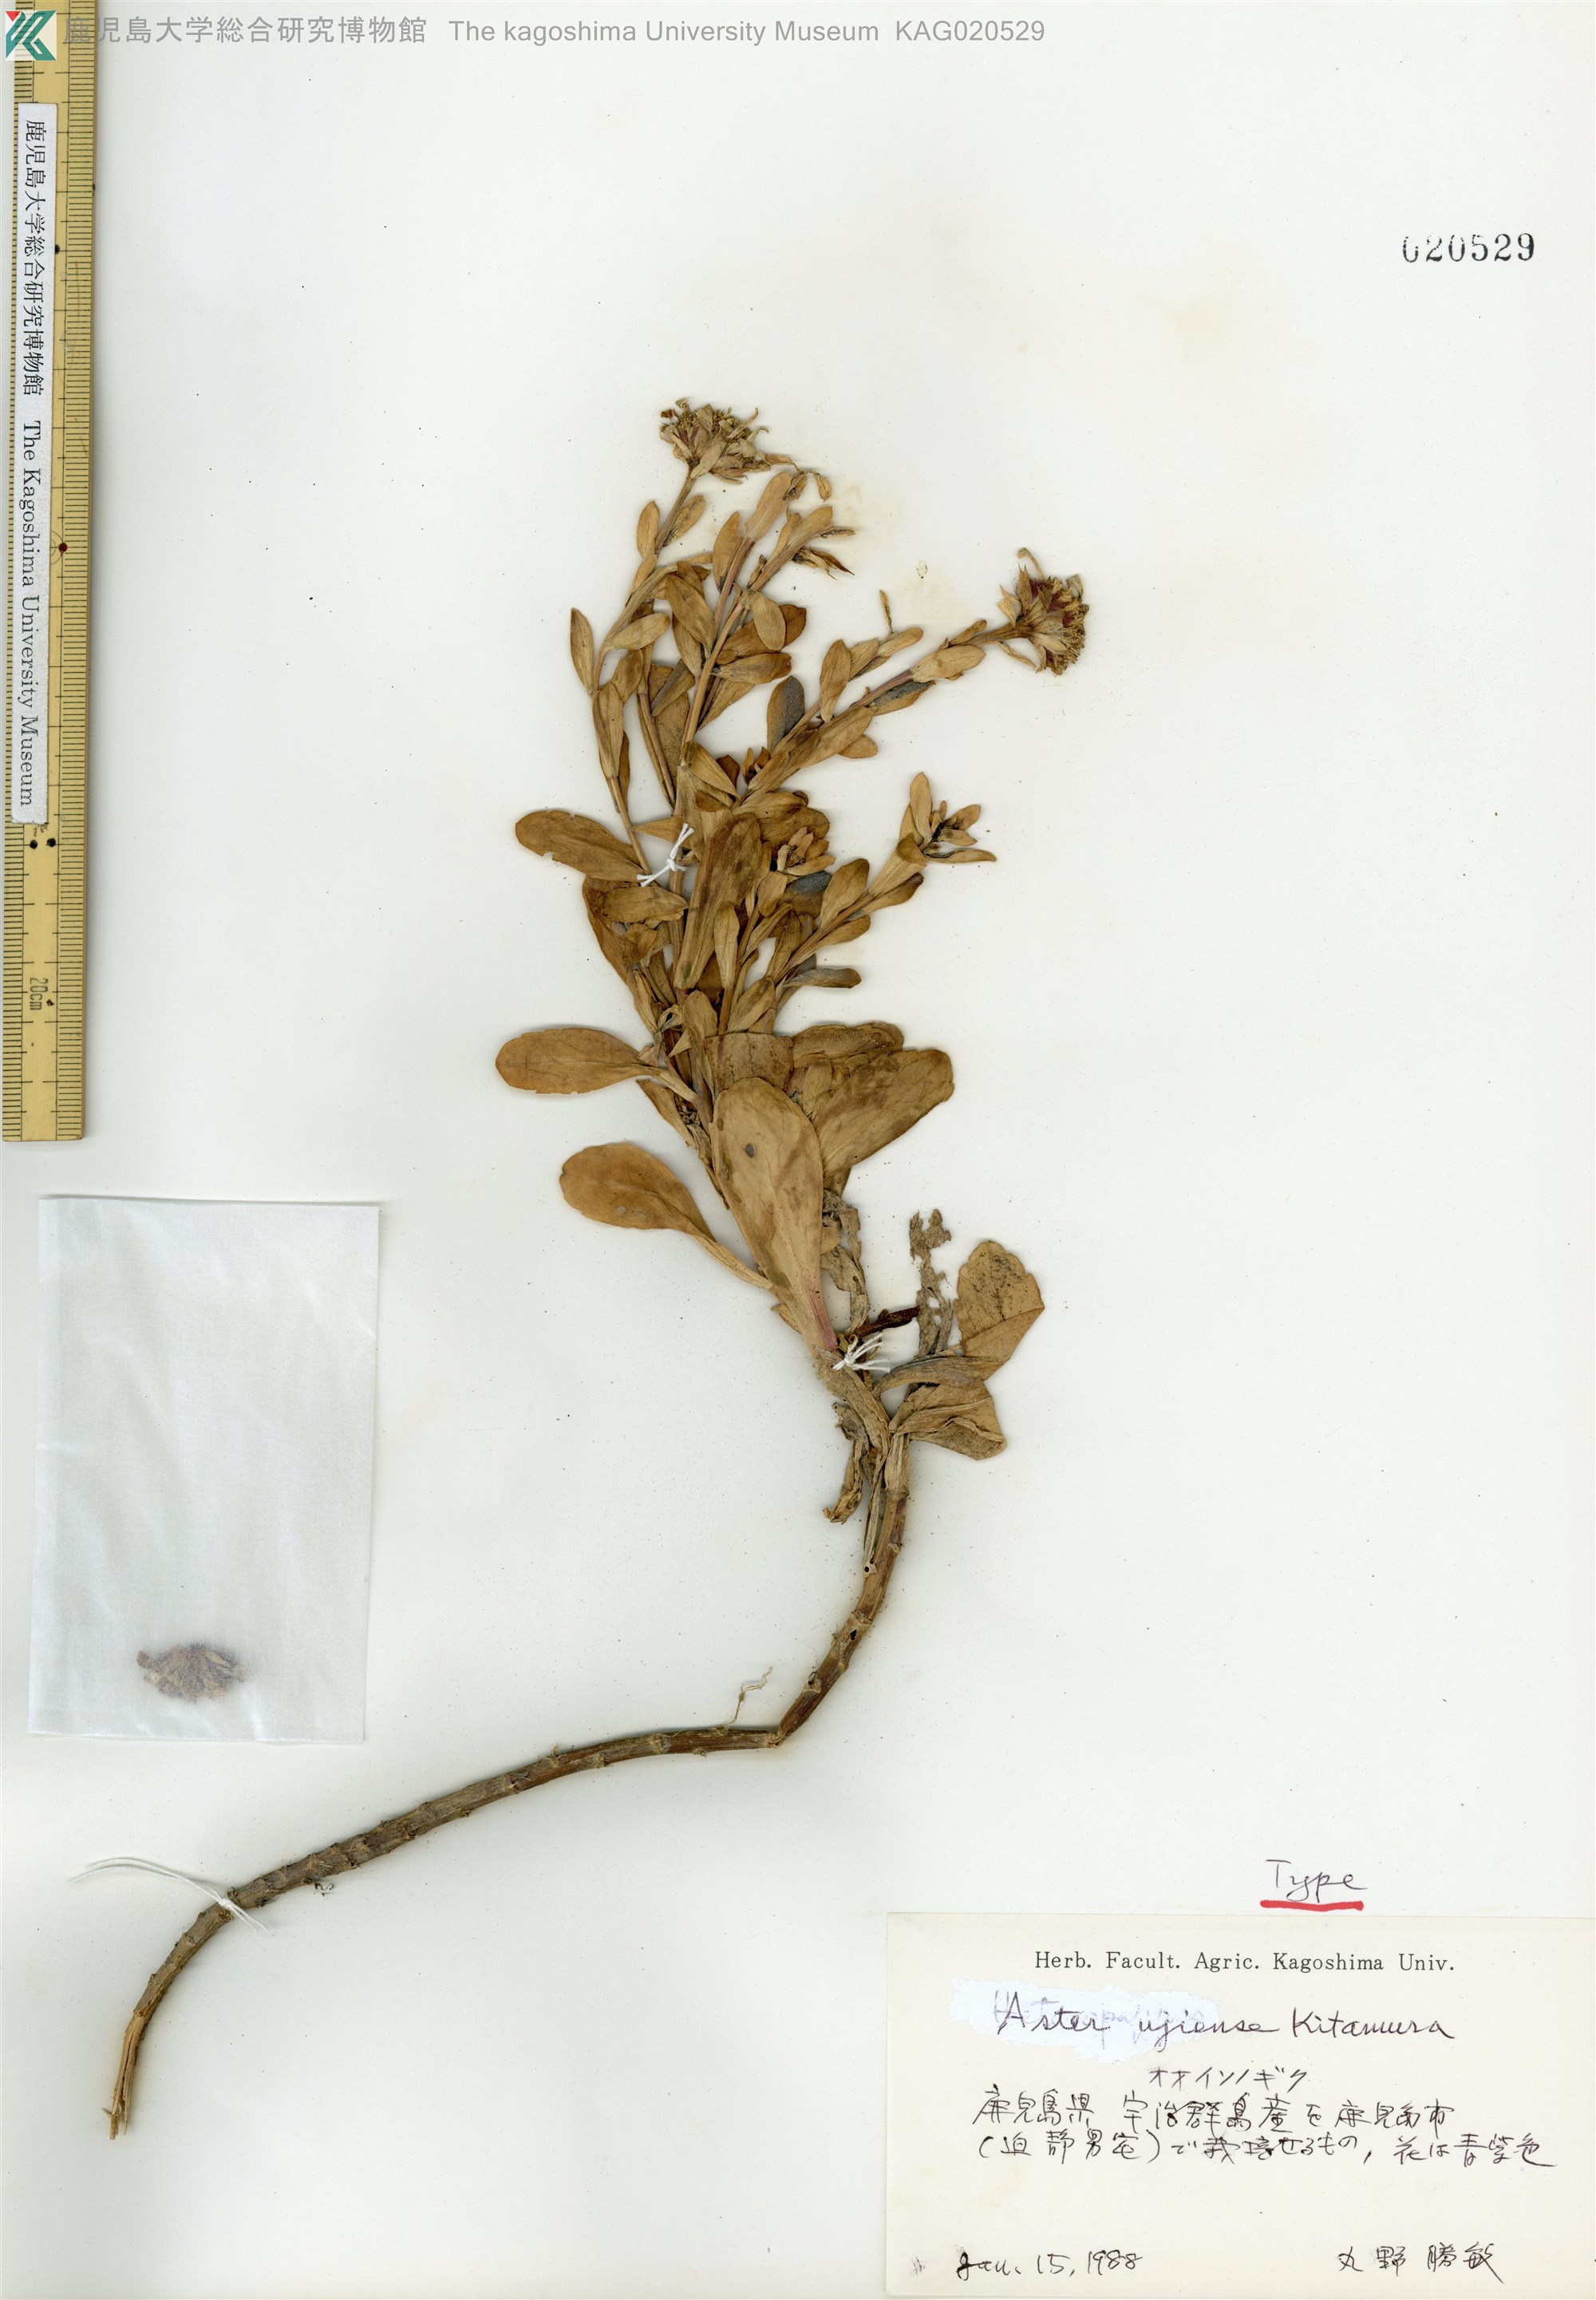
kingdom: Plantae
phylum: Tracheophyta
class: Magnoliopsida
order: Asterales
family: Asteraceae
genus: Aster
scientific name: Aster ujiinsularis
